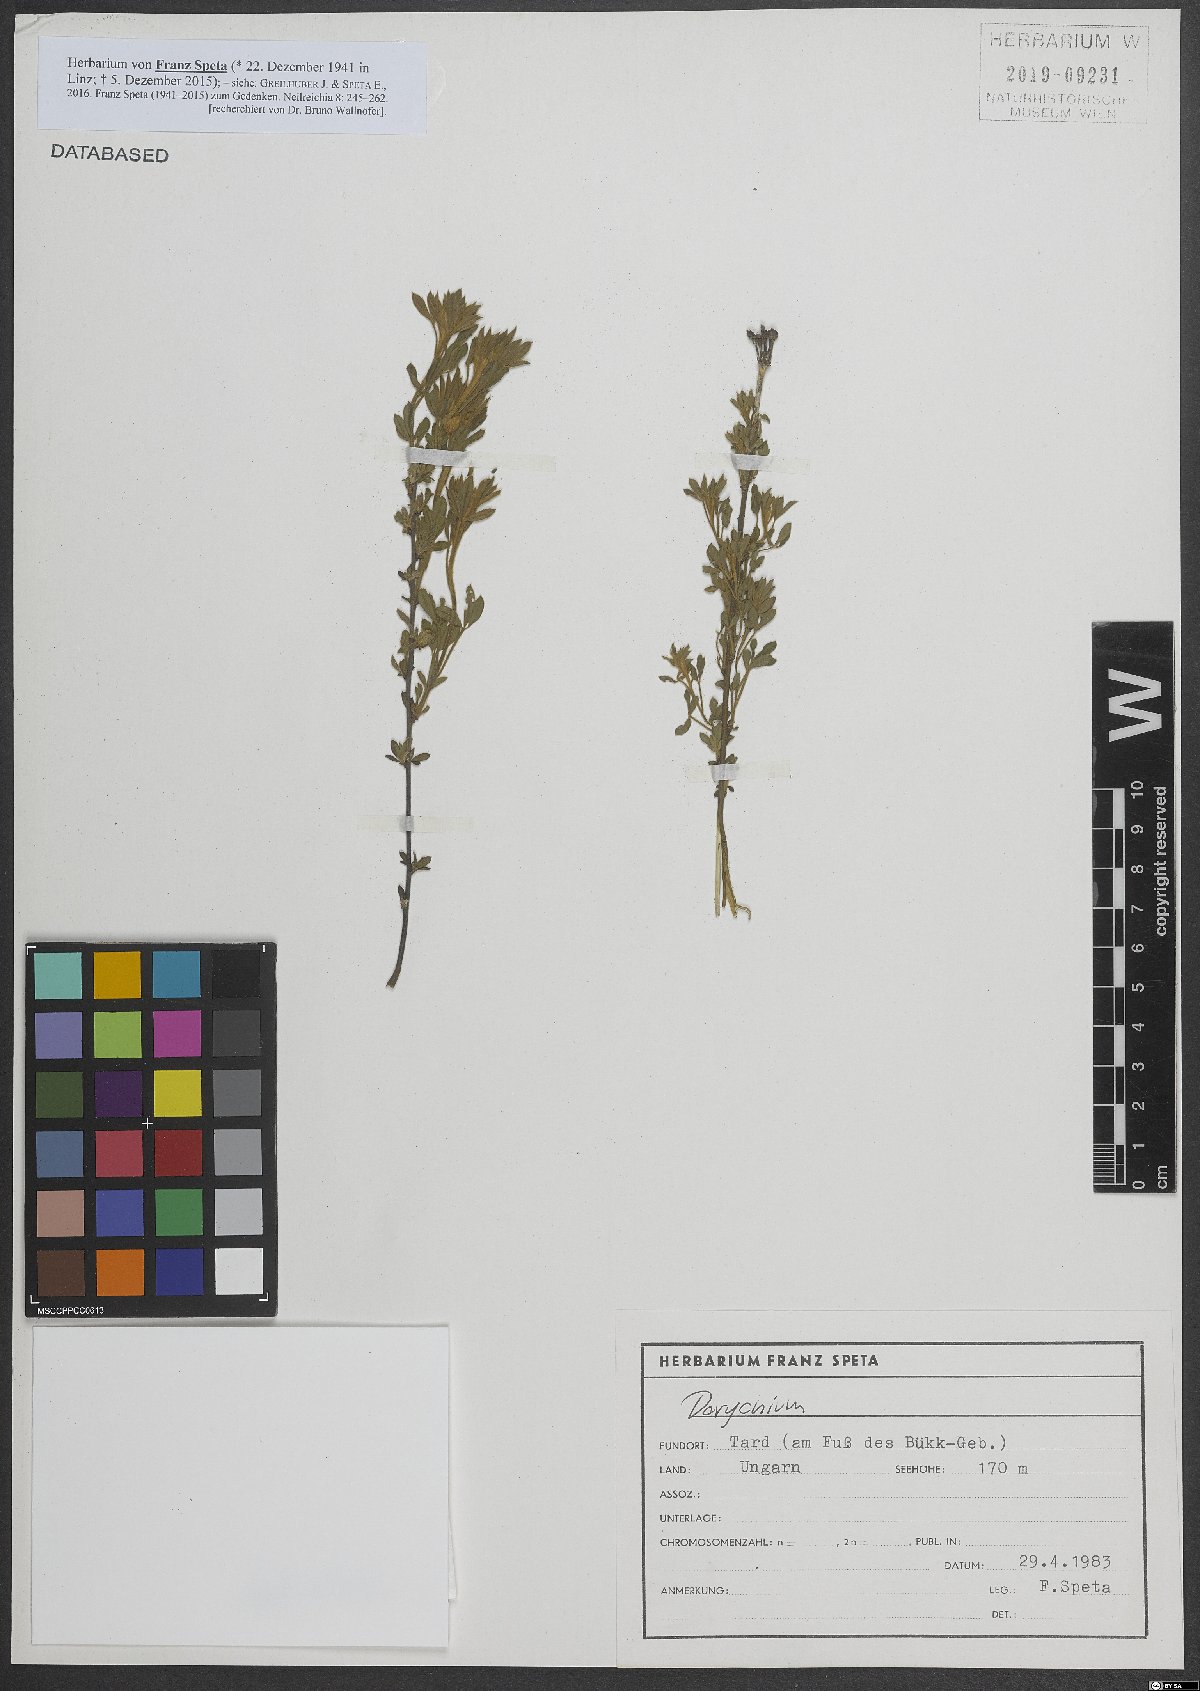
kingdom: Plantae
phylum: Tracheophyta
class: Magnoliopsida
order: Fabales
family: Fabaceae
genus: Lotus
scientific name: Lotus
